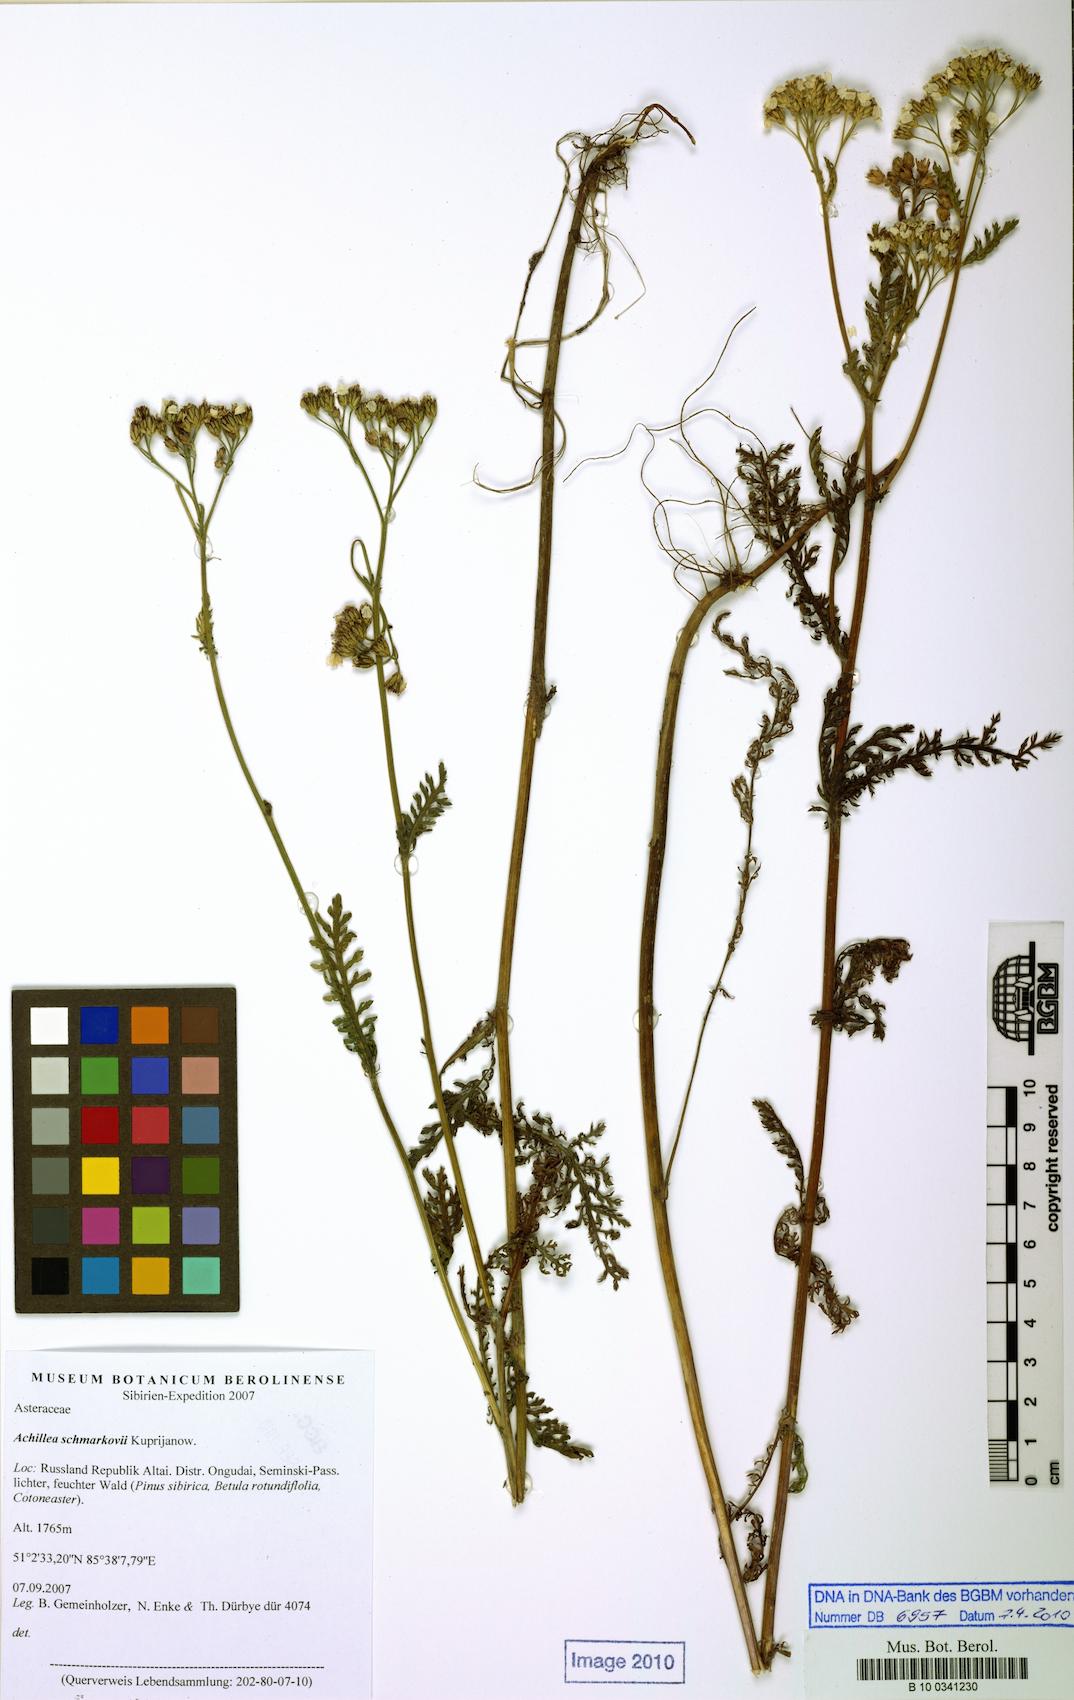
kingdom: Plantae
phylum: Tracheophyta
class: Magnoliopsida
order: Asterales
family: Asteraceae
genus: Achillea
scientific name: Achillea schmakovii
